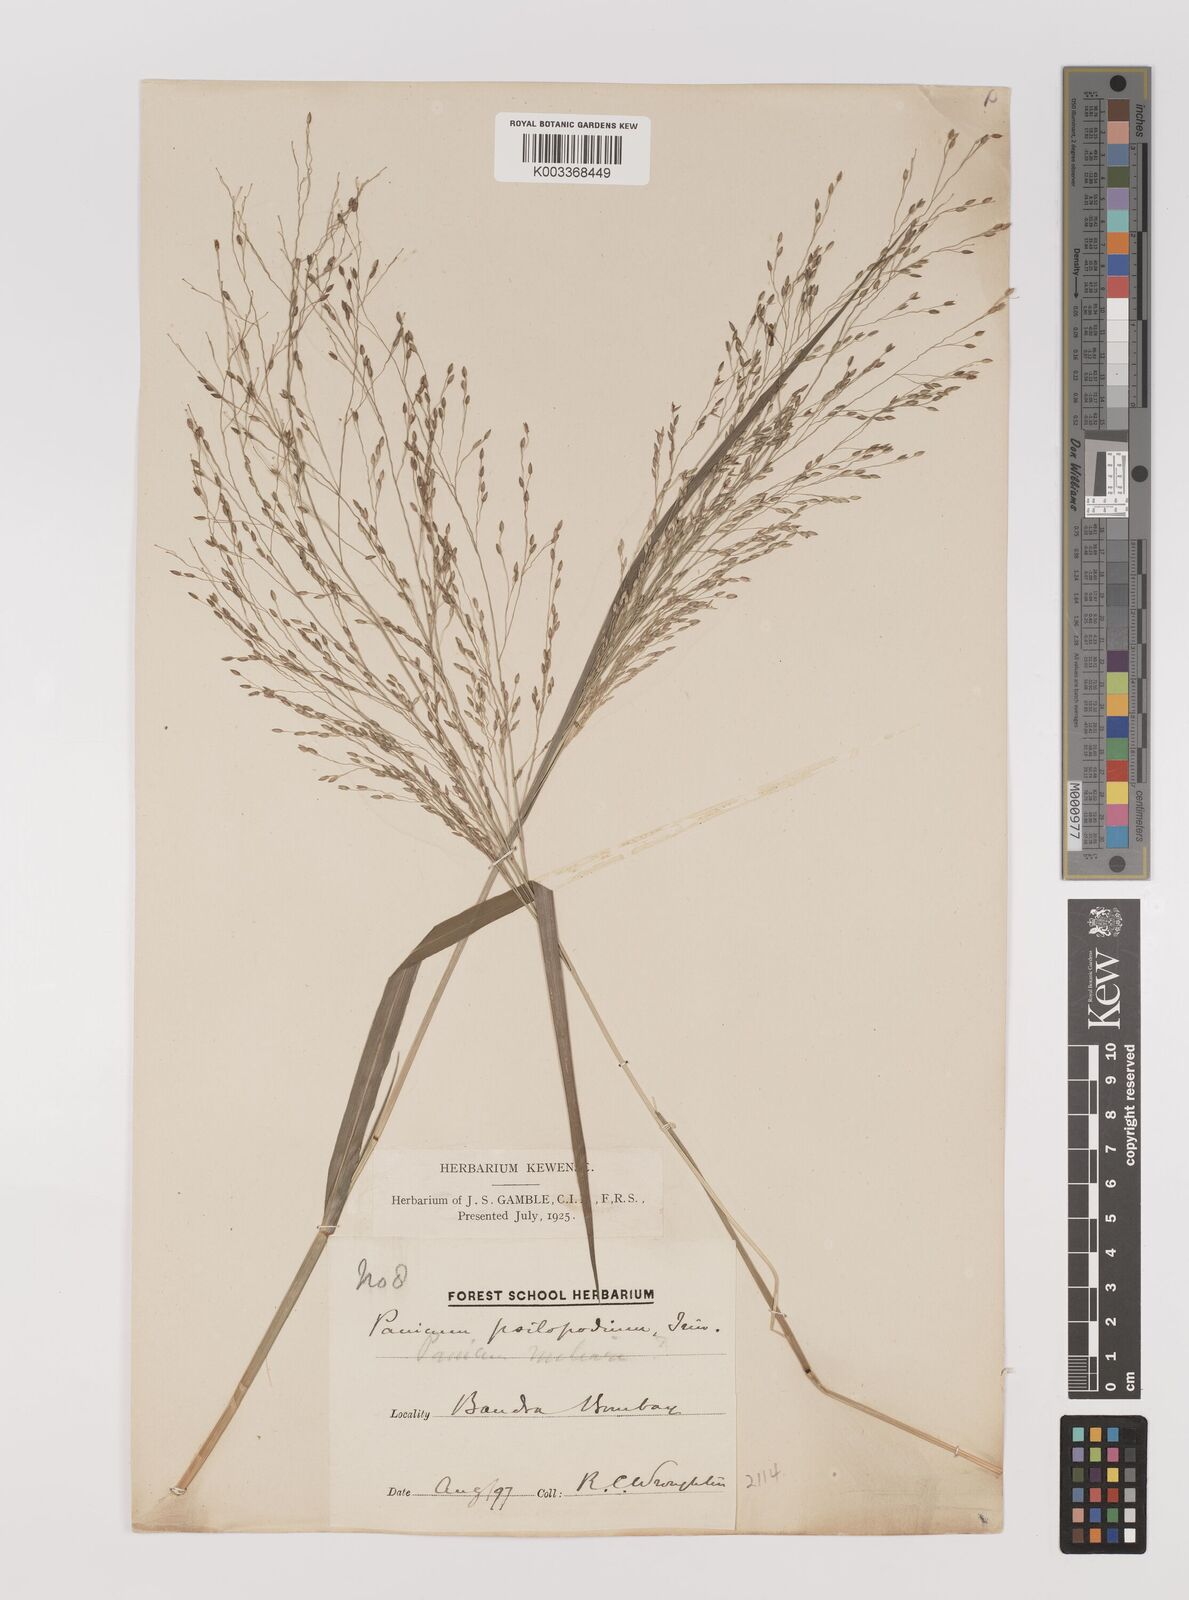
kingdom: Plantae
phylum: Tracheophyta
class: Liliopsida
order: Poales
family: Poaceae
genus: Panicum
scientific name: Panicum sumatrense
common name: Little millet
